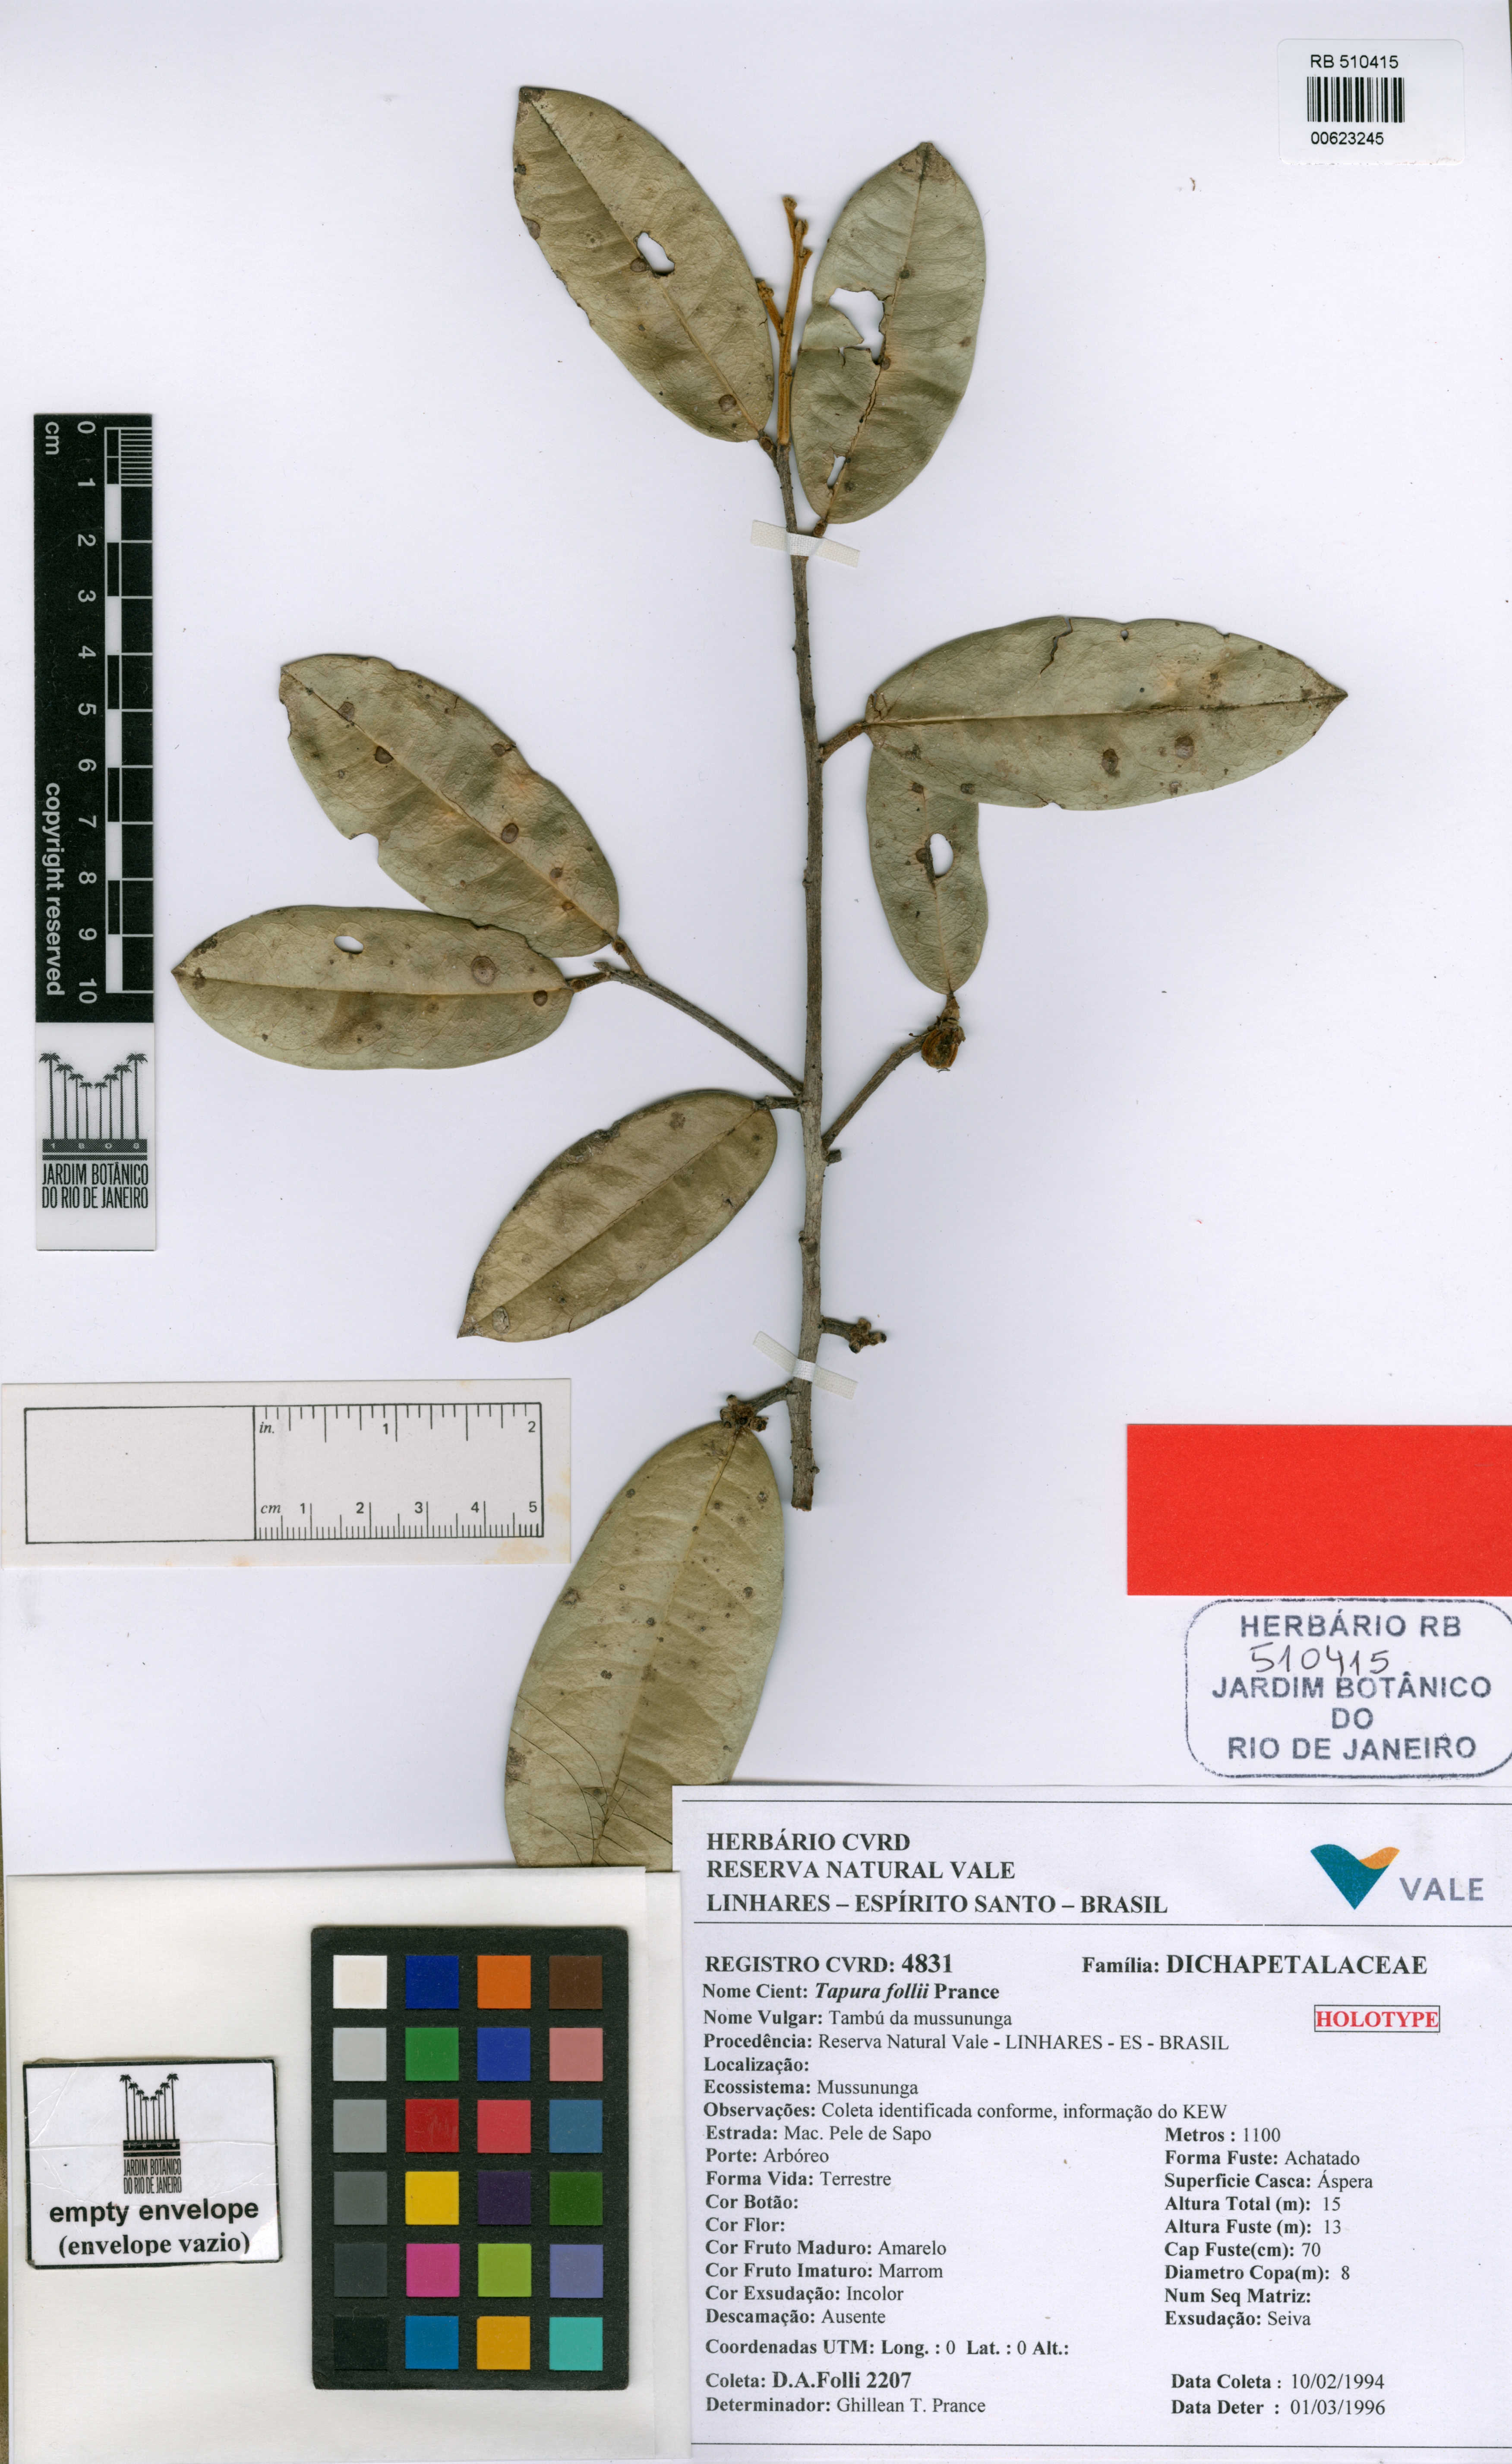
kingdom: Plantae
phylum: Tracheophyta
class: Magnoliopsida
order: Malpighiales
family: Dichapetalaceae
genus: Tapura
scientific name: Tapura follii
